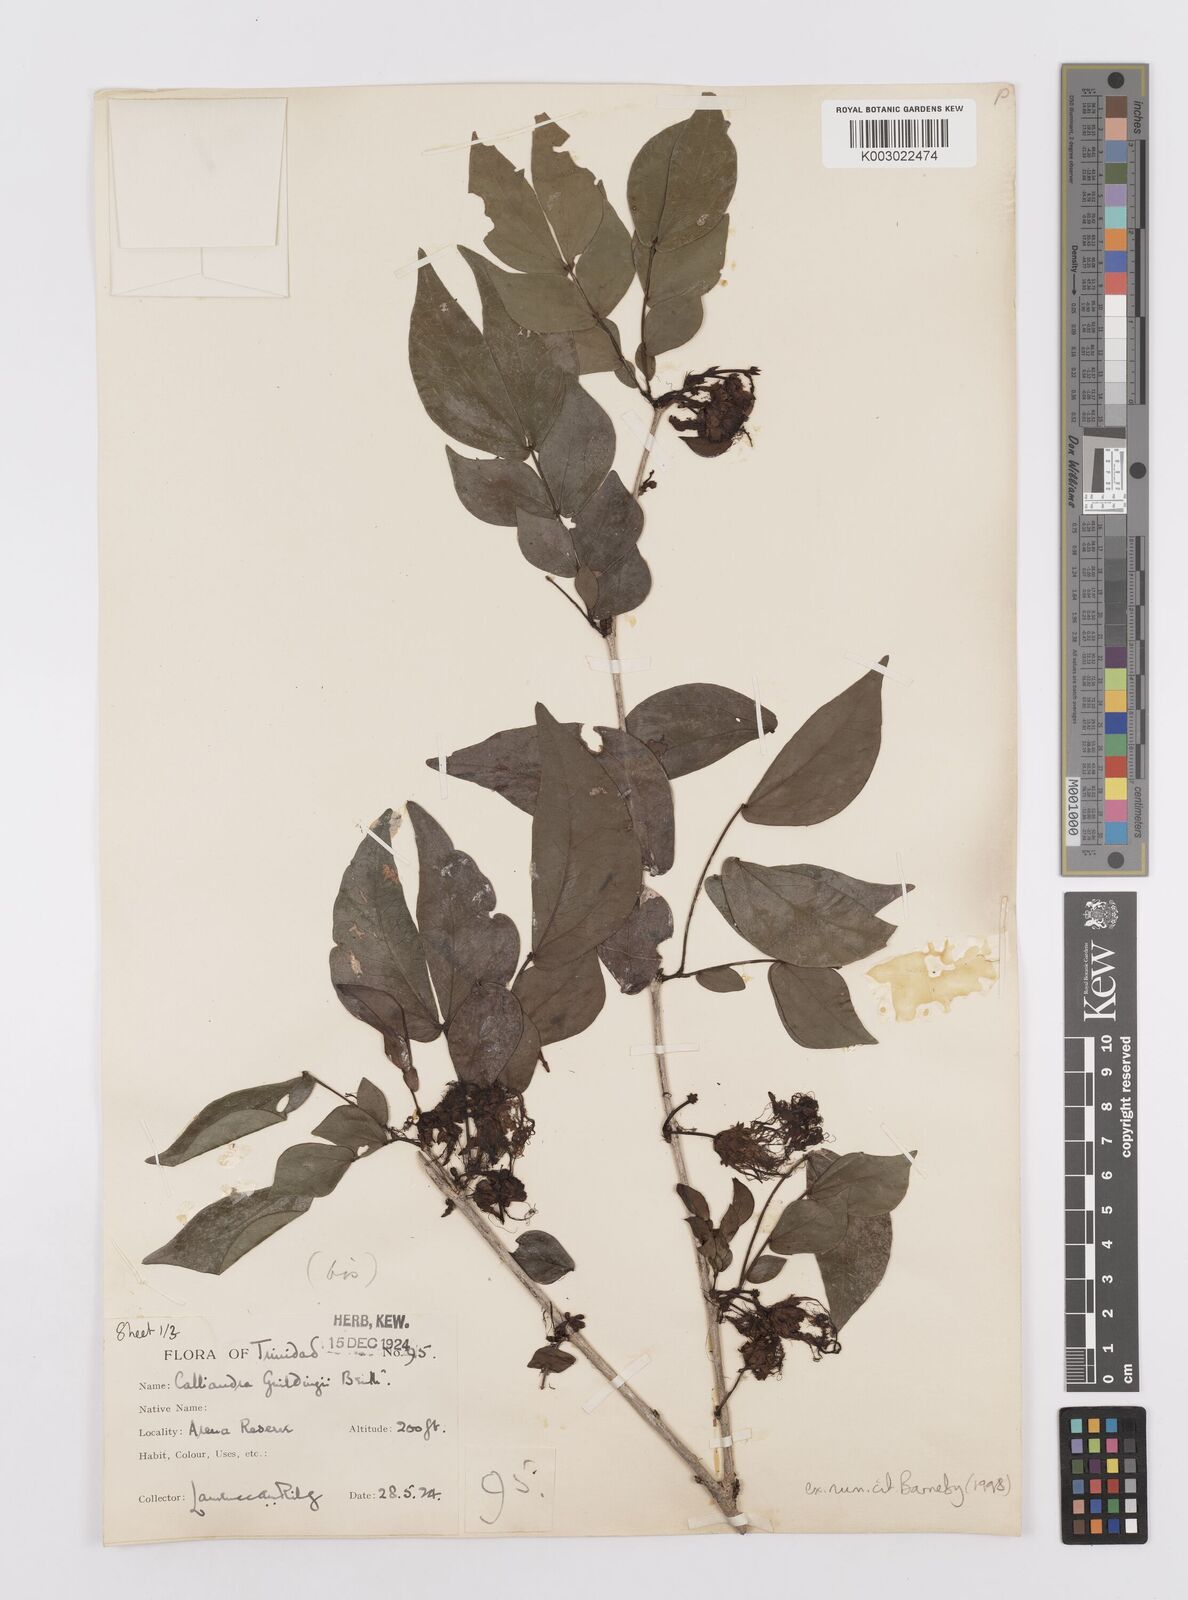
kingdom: Plantae
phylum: Tracheophyta
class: Magnoliopsida
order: Fabales
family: Fabaceae
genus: Calliandra
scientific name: Calliandra guildingii
